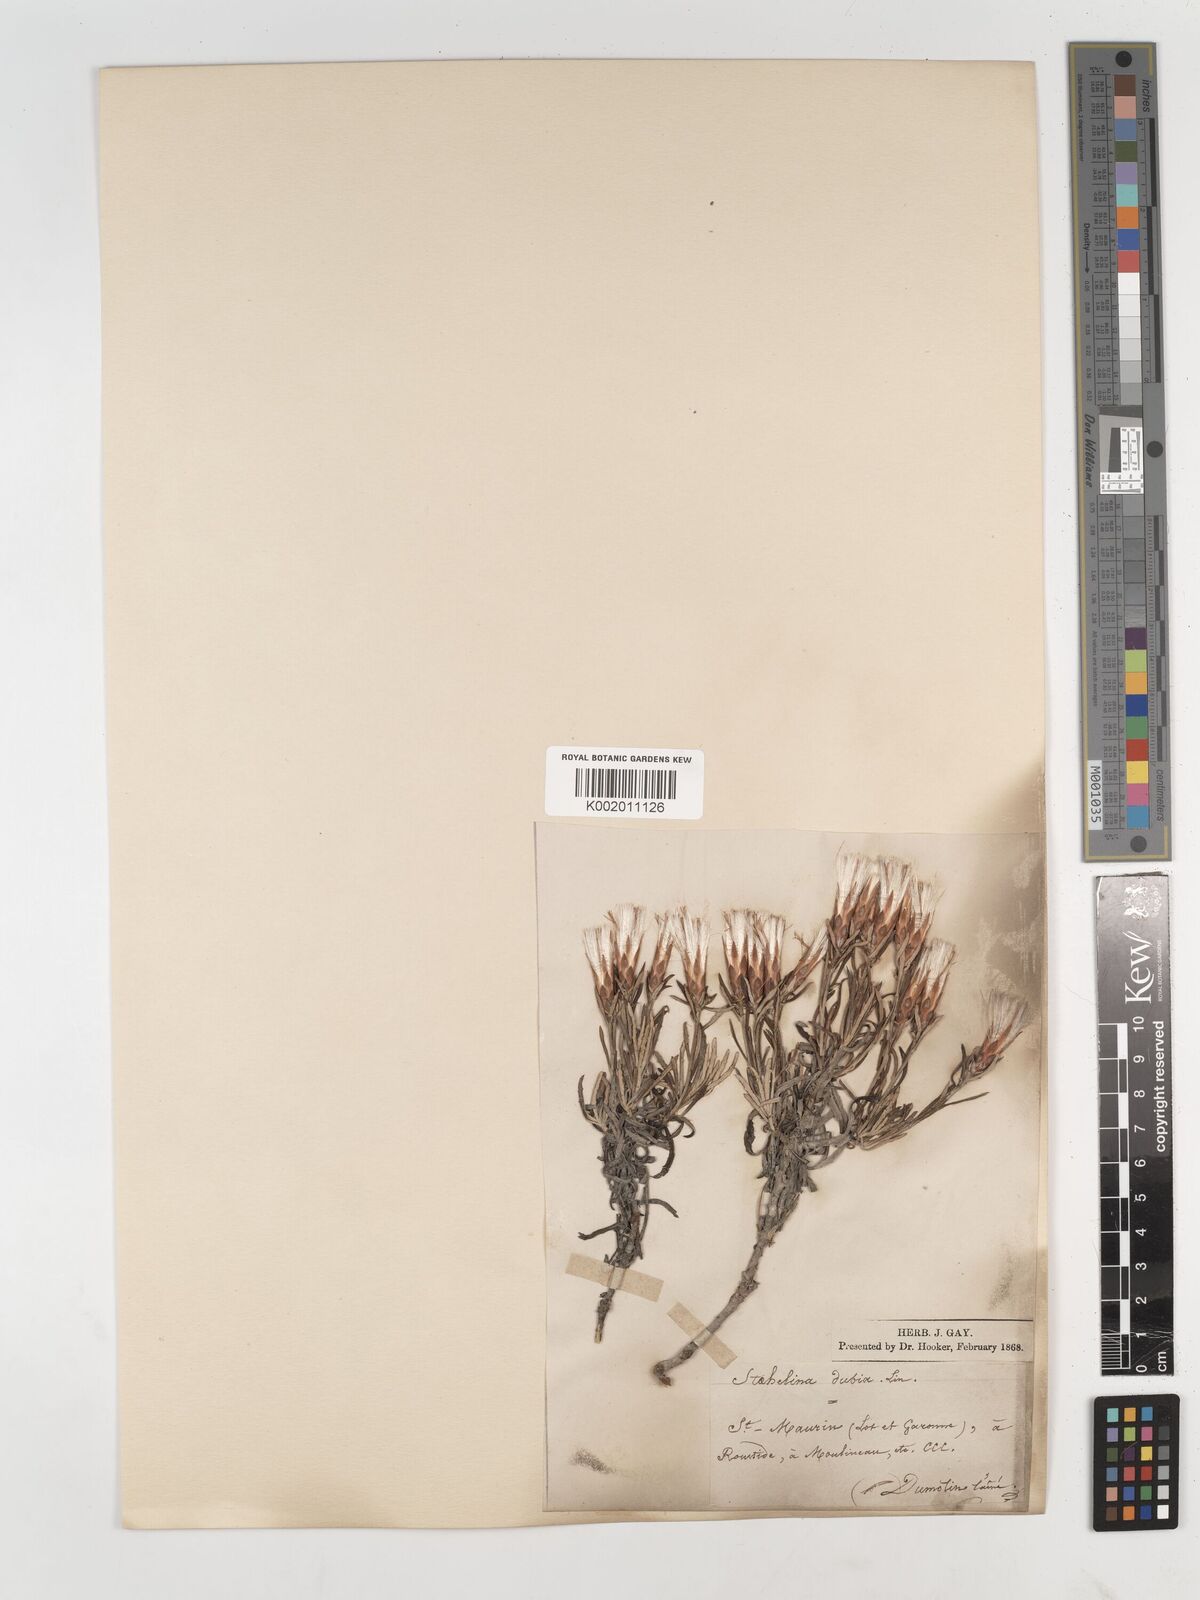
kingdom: Plantae
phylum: Tracheophyta
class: Magnoliopsida
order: Asterales
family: Asteraceae
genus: Staehelina
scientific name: Staehelina dubia
